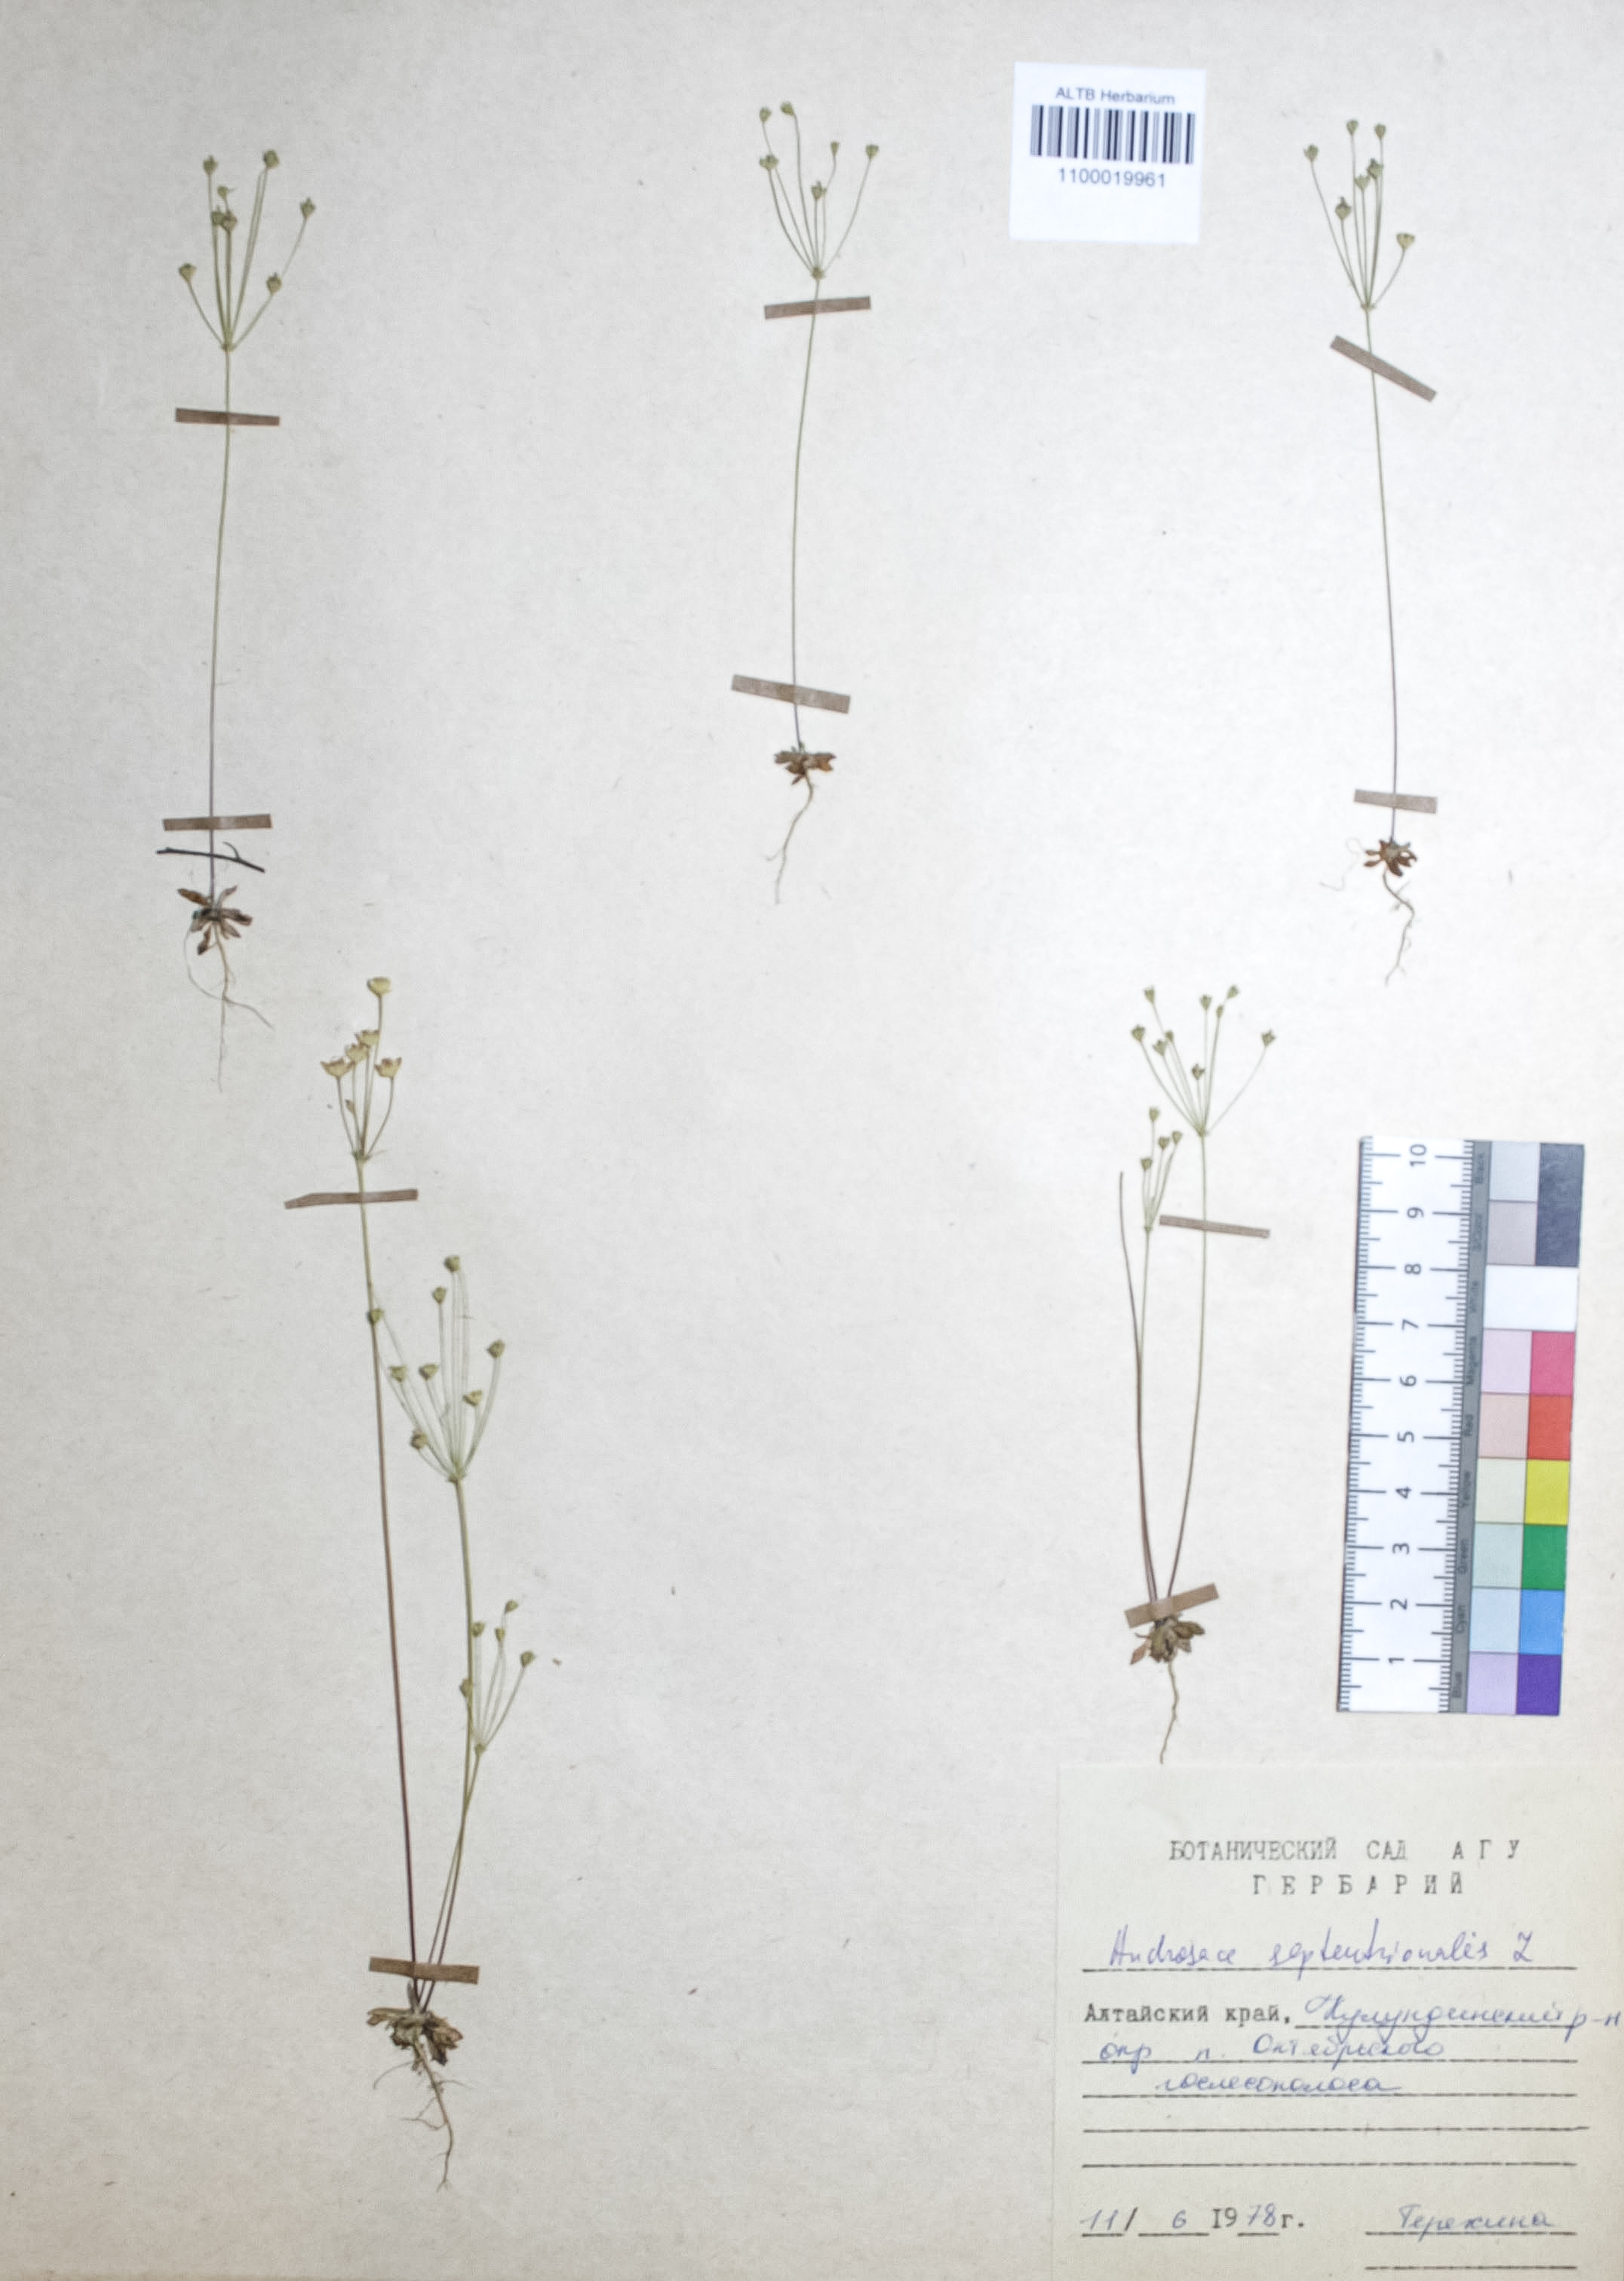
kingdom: Plantae
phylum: Tracheophyta
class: Magnoliopsida
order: Ericales
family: Primulaceae
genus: Androsace
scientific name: Androsace septentrionalis
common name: Hairy northern fairy-candelabra
